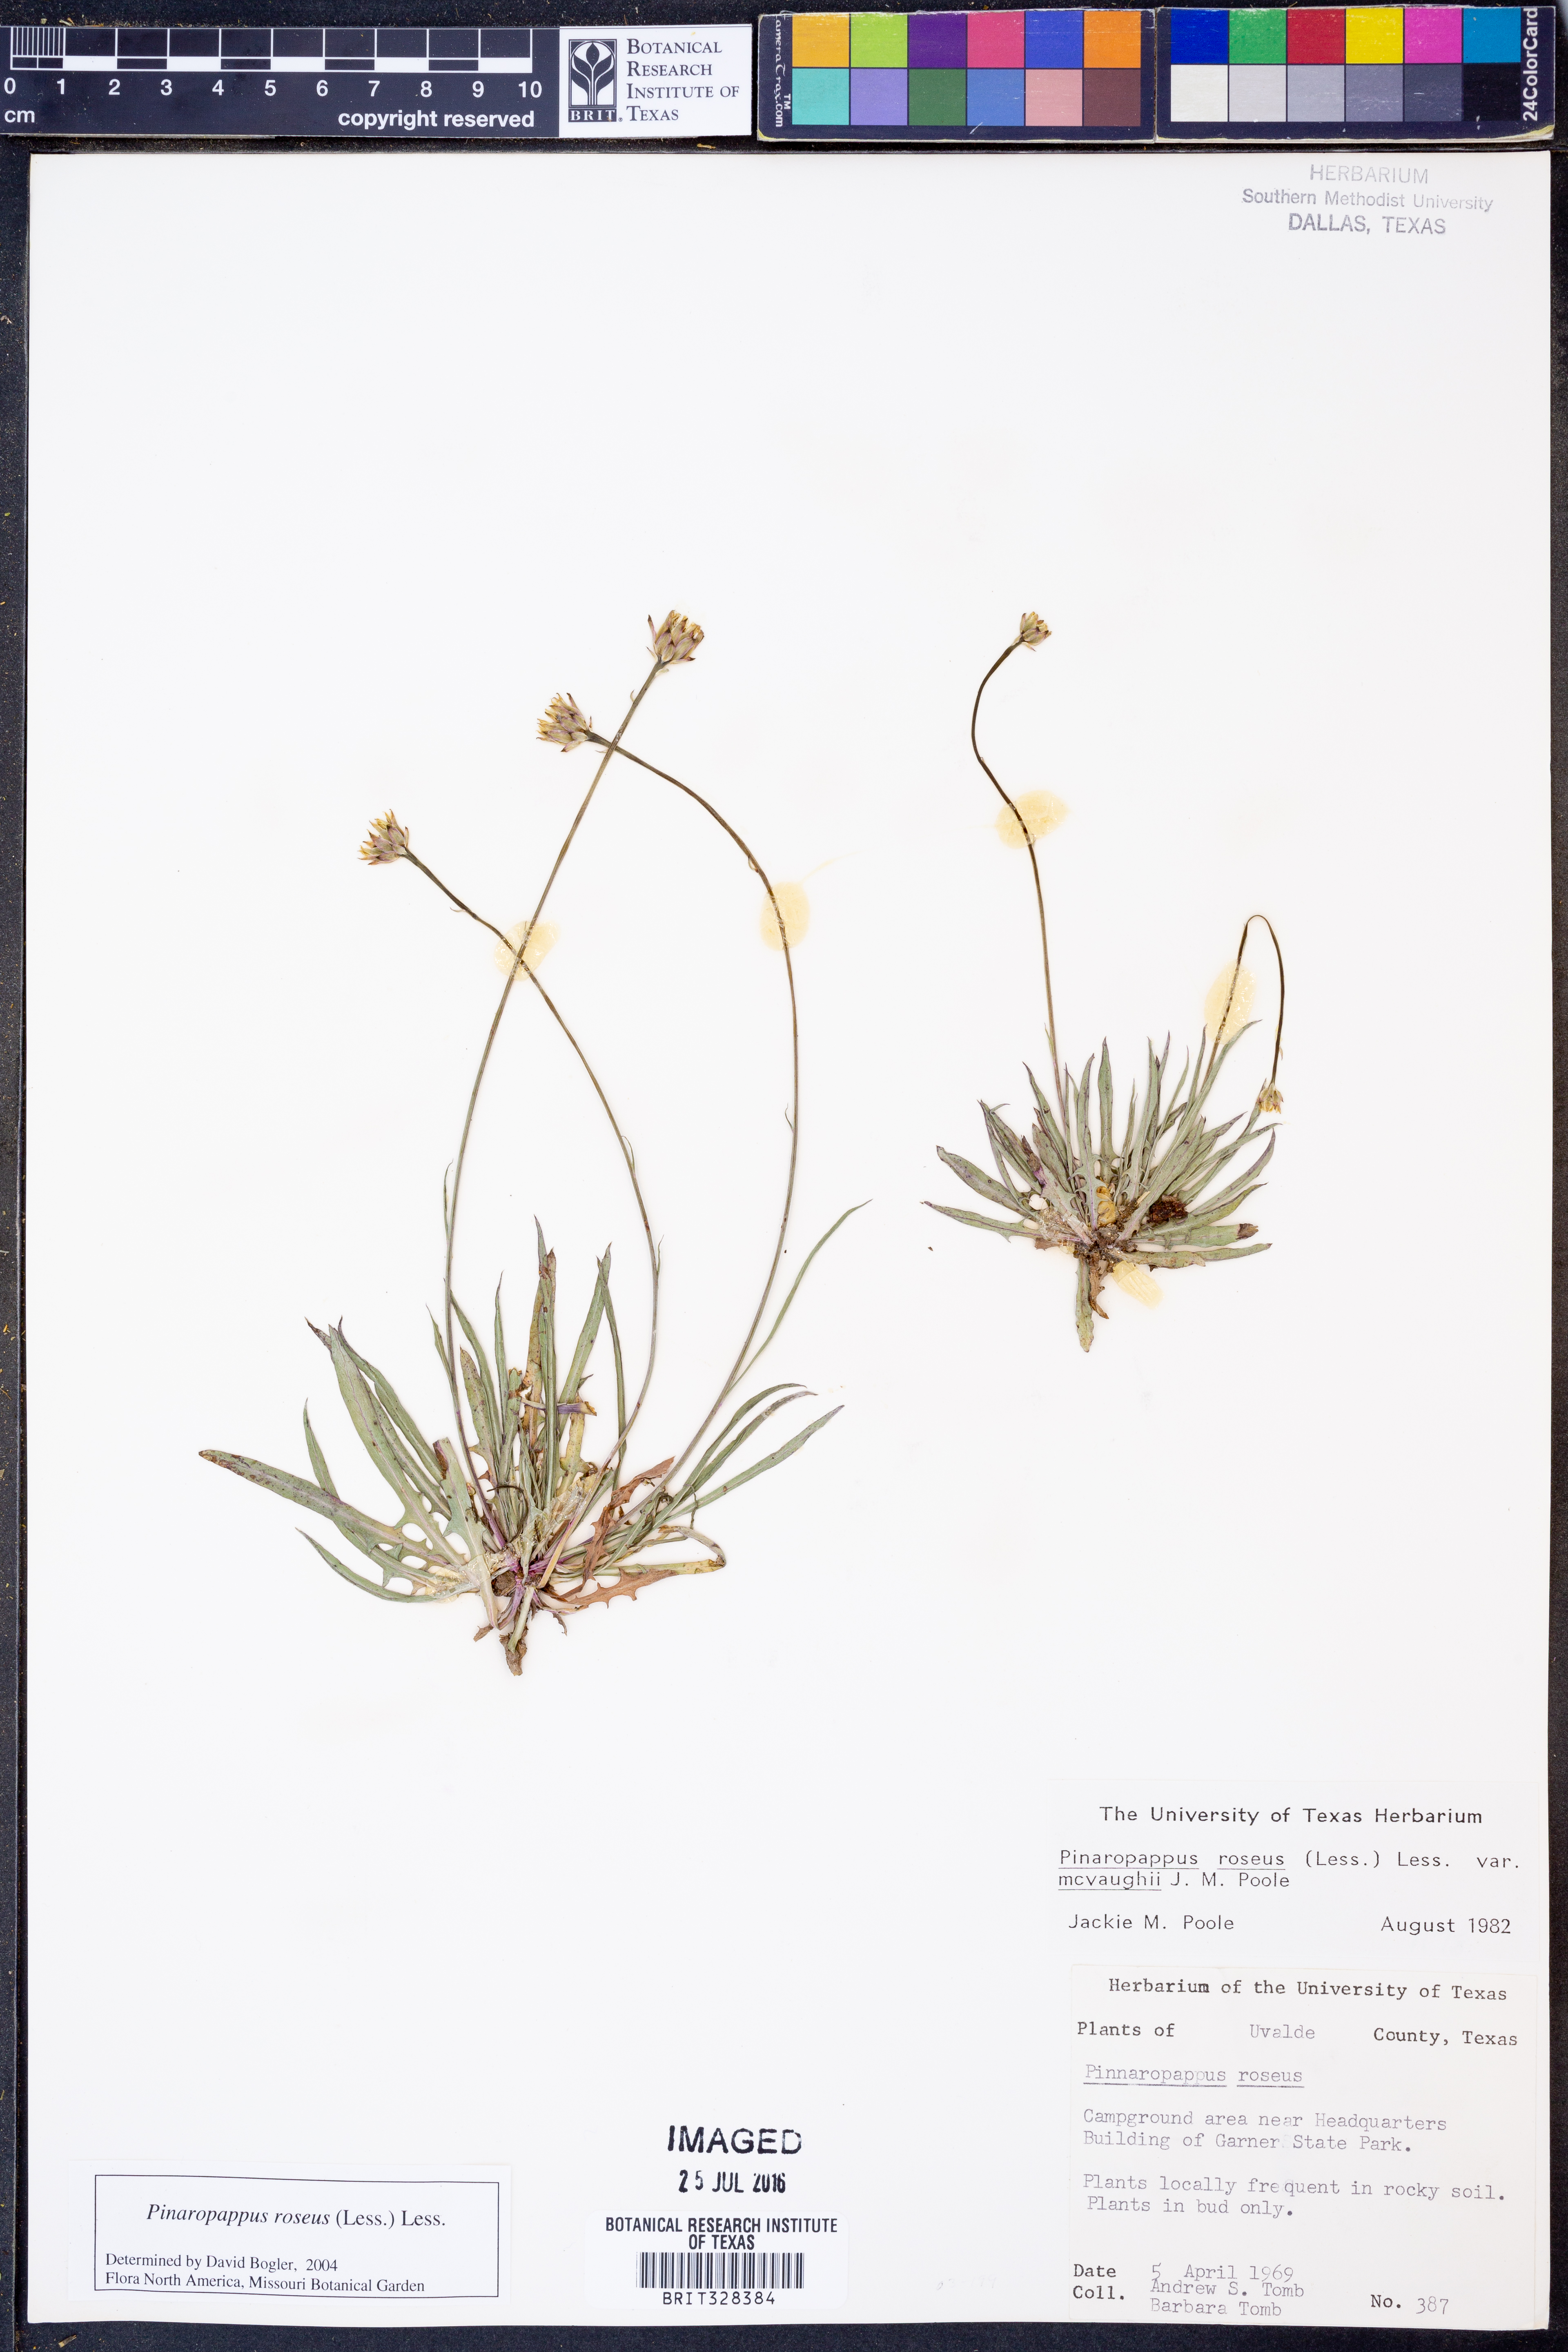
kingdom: Plantae
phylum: Tracheophyta
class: Magnoliopsida
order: Asterales
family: Asteraceae
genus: Pinaropappus
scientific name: Pinaropappus roseus
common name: Rock-lettuce
